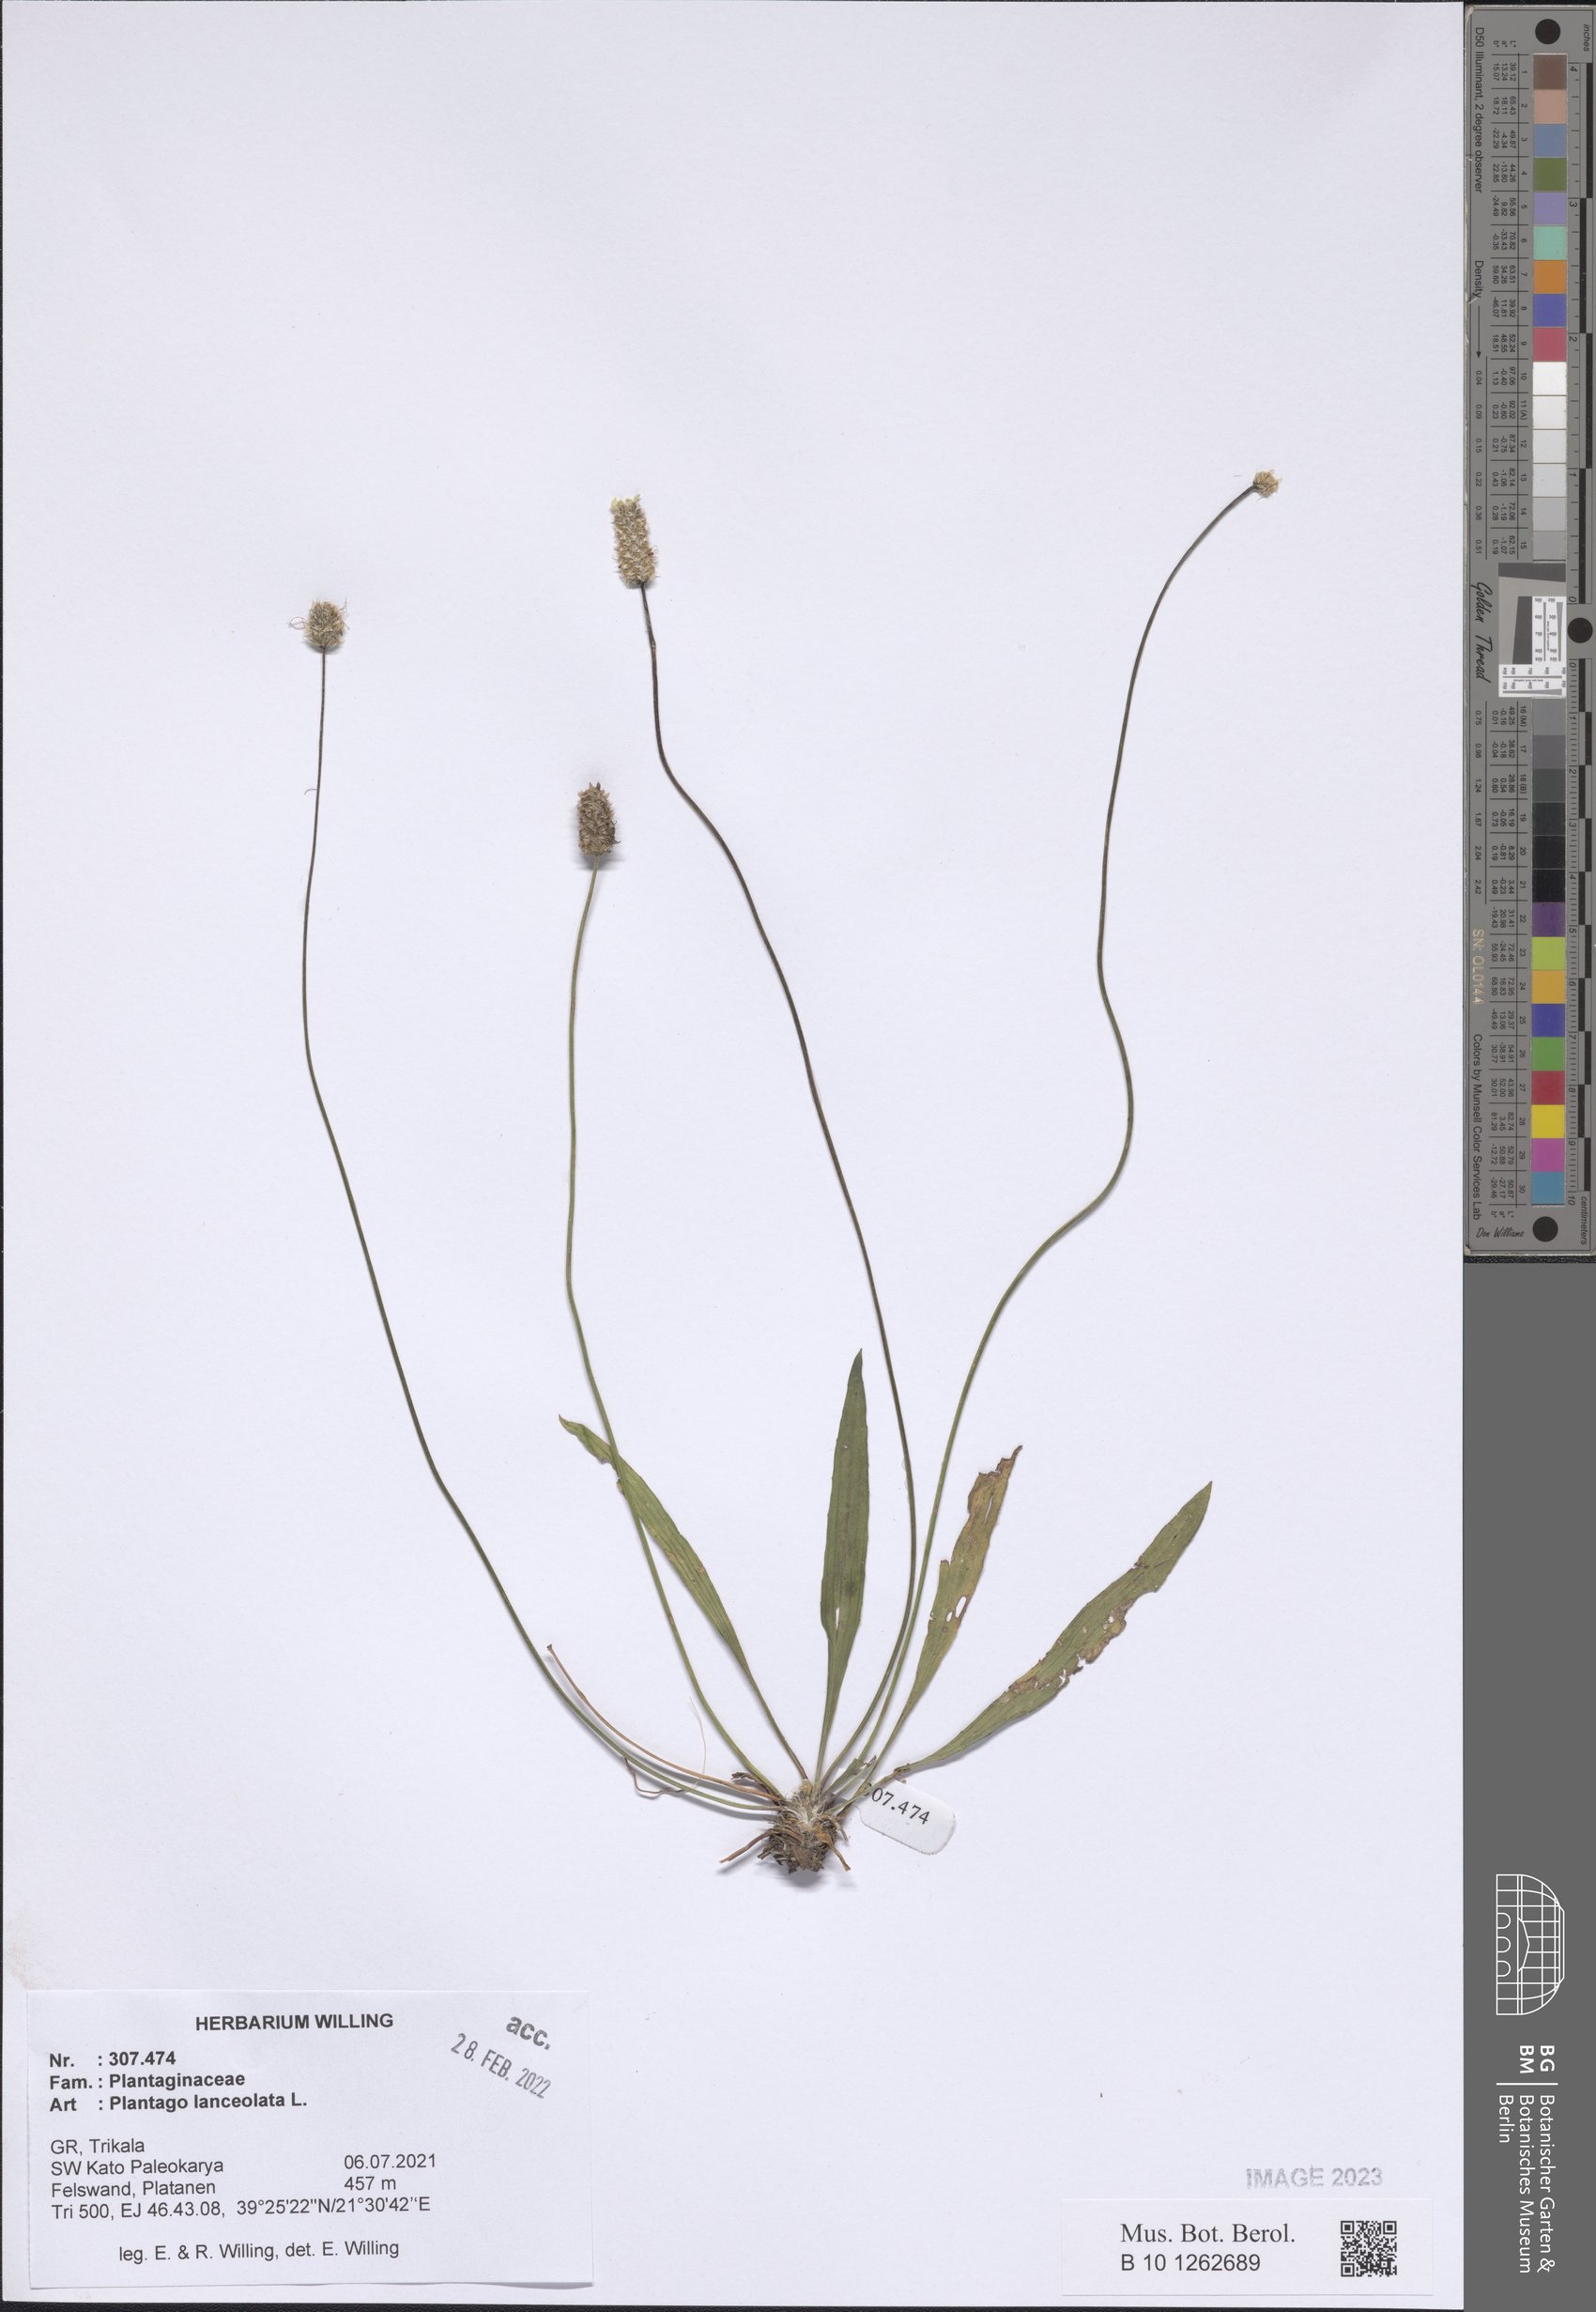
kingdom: Plantae
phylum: Tracheophyta
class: Magnoliopsida
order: Lamiales
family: Plantaginaceae
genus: Plantago
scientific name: Plantago lanceolata
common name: Ribwort plantain
